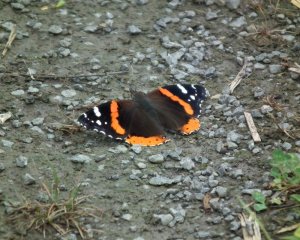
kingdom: Animalia
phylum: Arthropoda
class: Insecta
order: Lepidoptera
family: Nymphalidae
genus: Vanessa
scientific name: Vanessa atalanta
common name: Red Admiral
